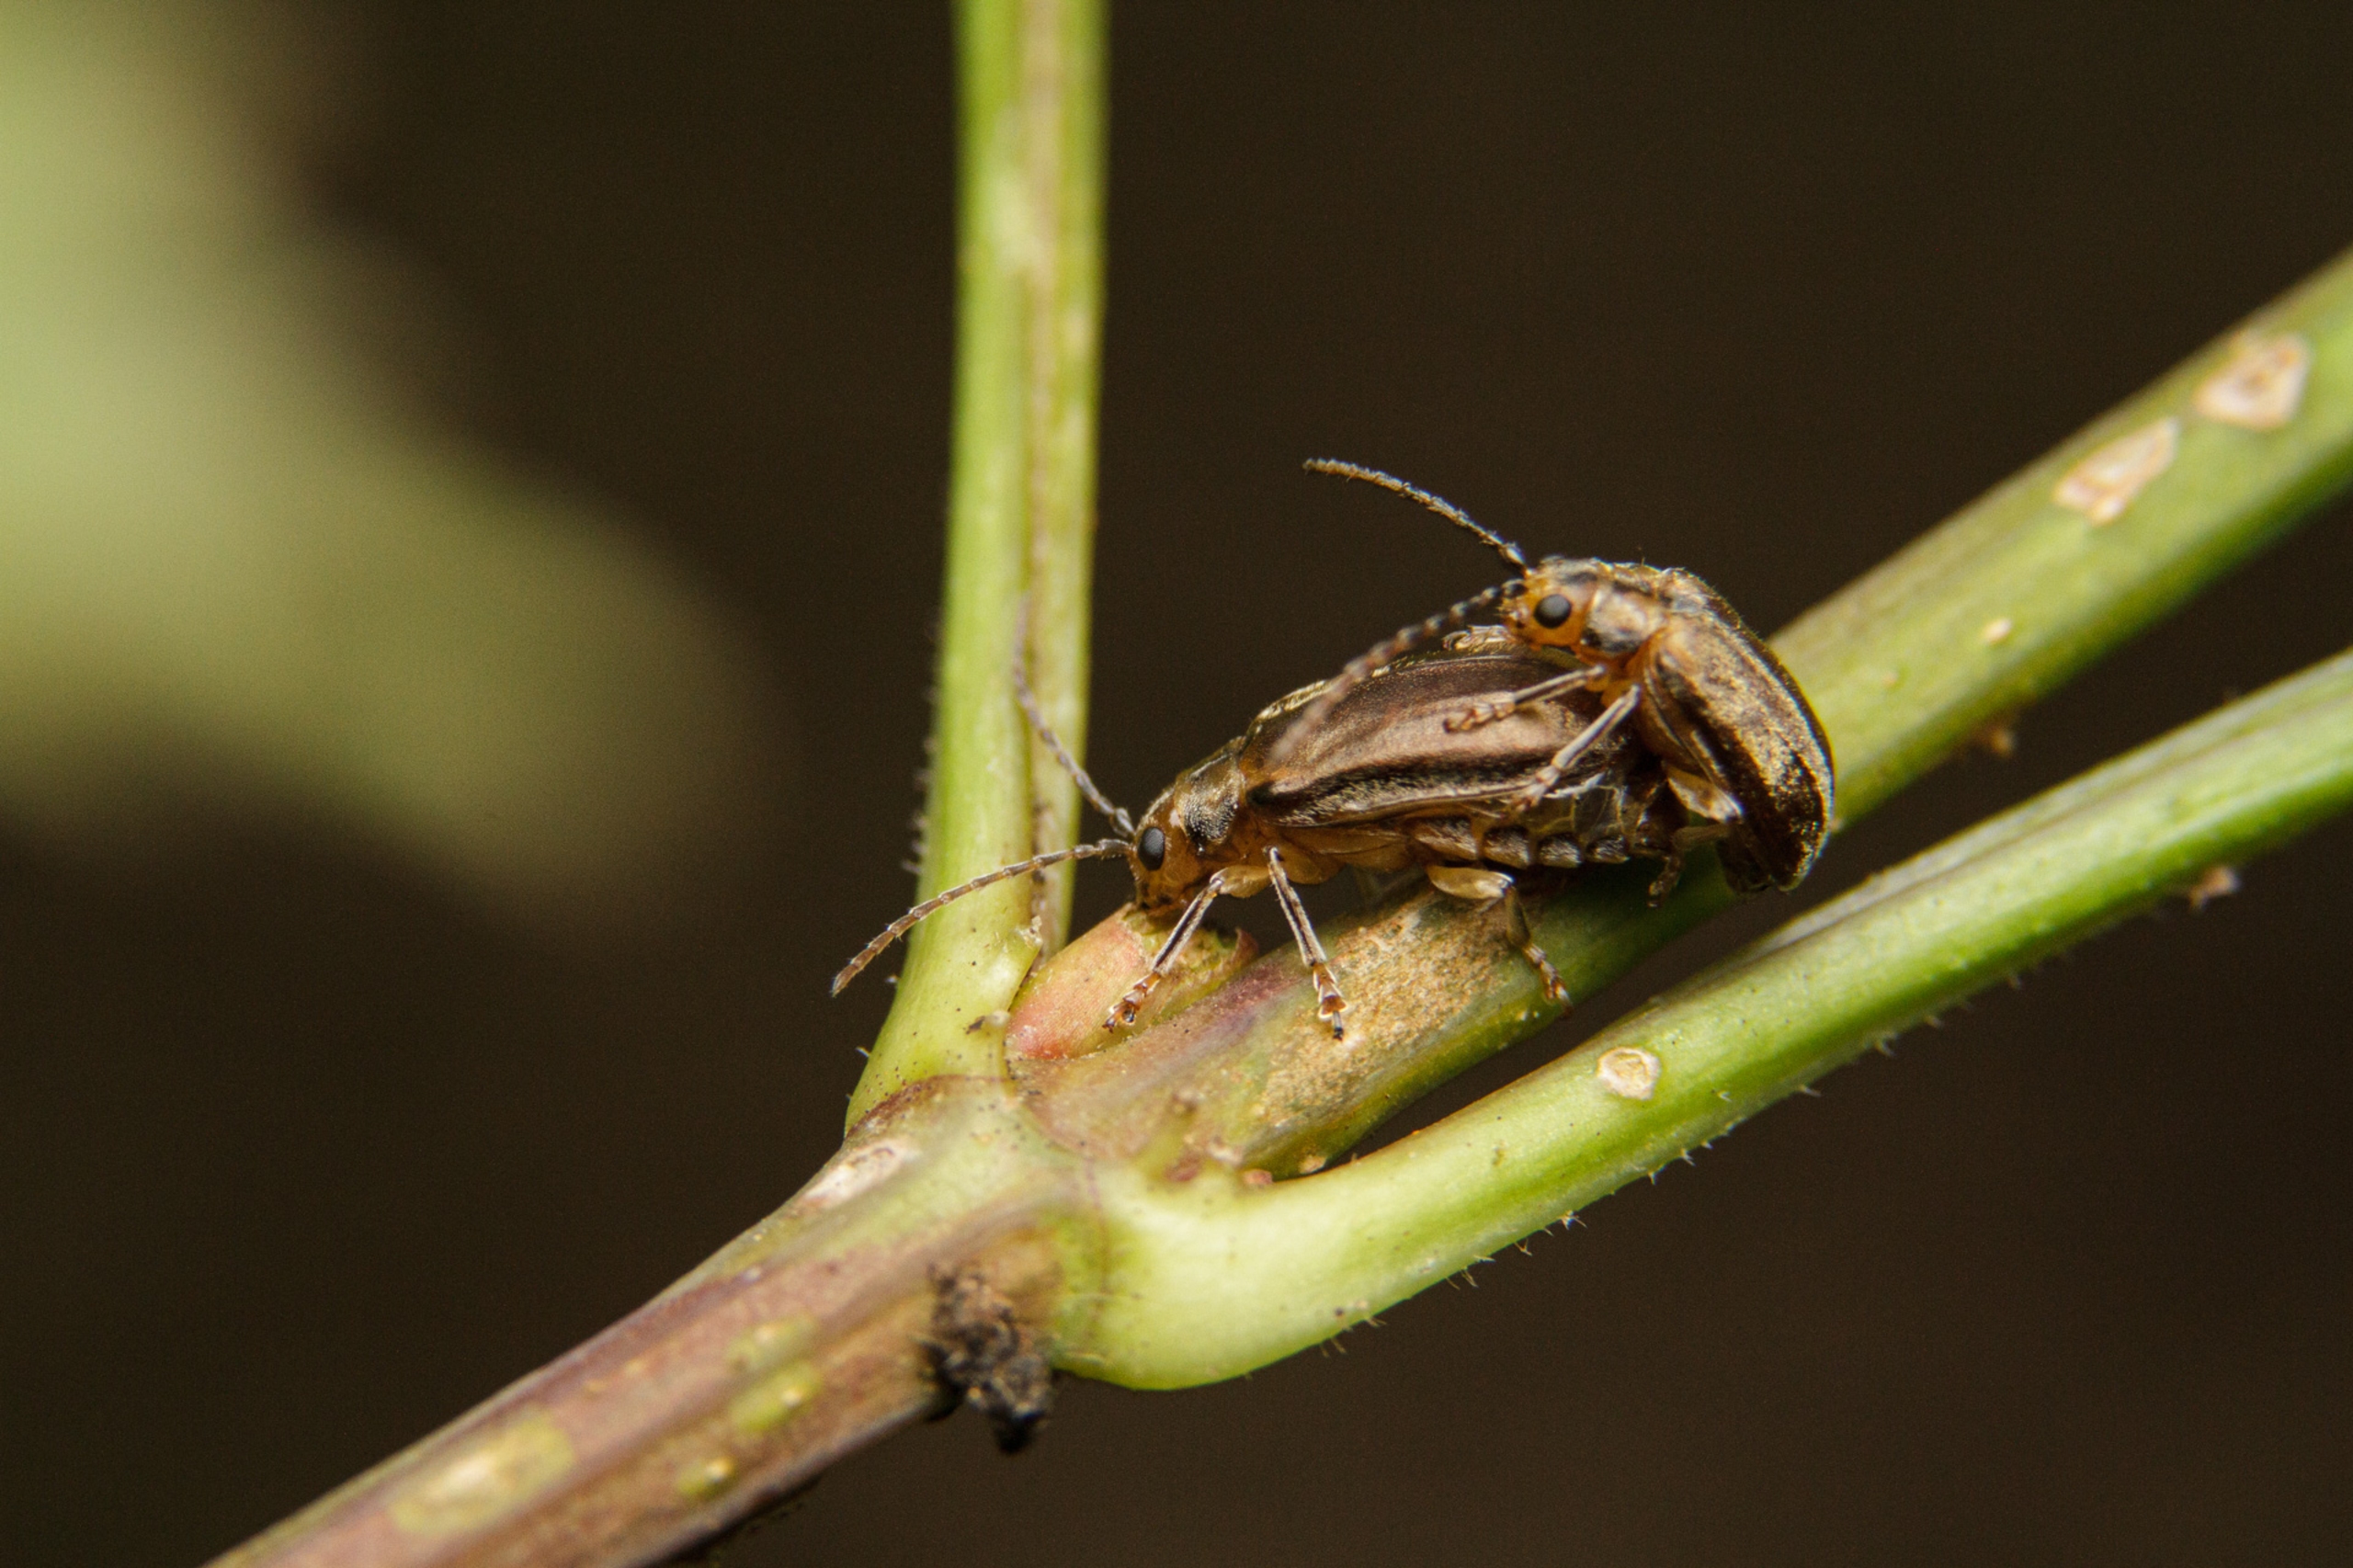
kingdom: Animalia
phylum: Arthropoda
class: Insecta
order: Coleoptera
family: Chrysomelidae
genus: Pyrrhalta
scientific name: Pyrrhalta viburni
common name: Kvalkvedbladbille
